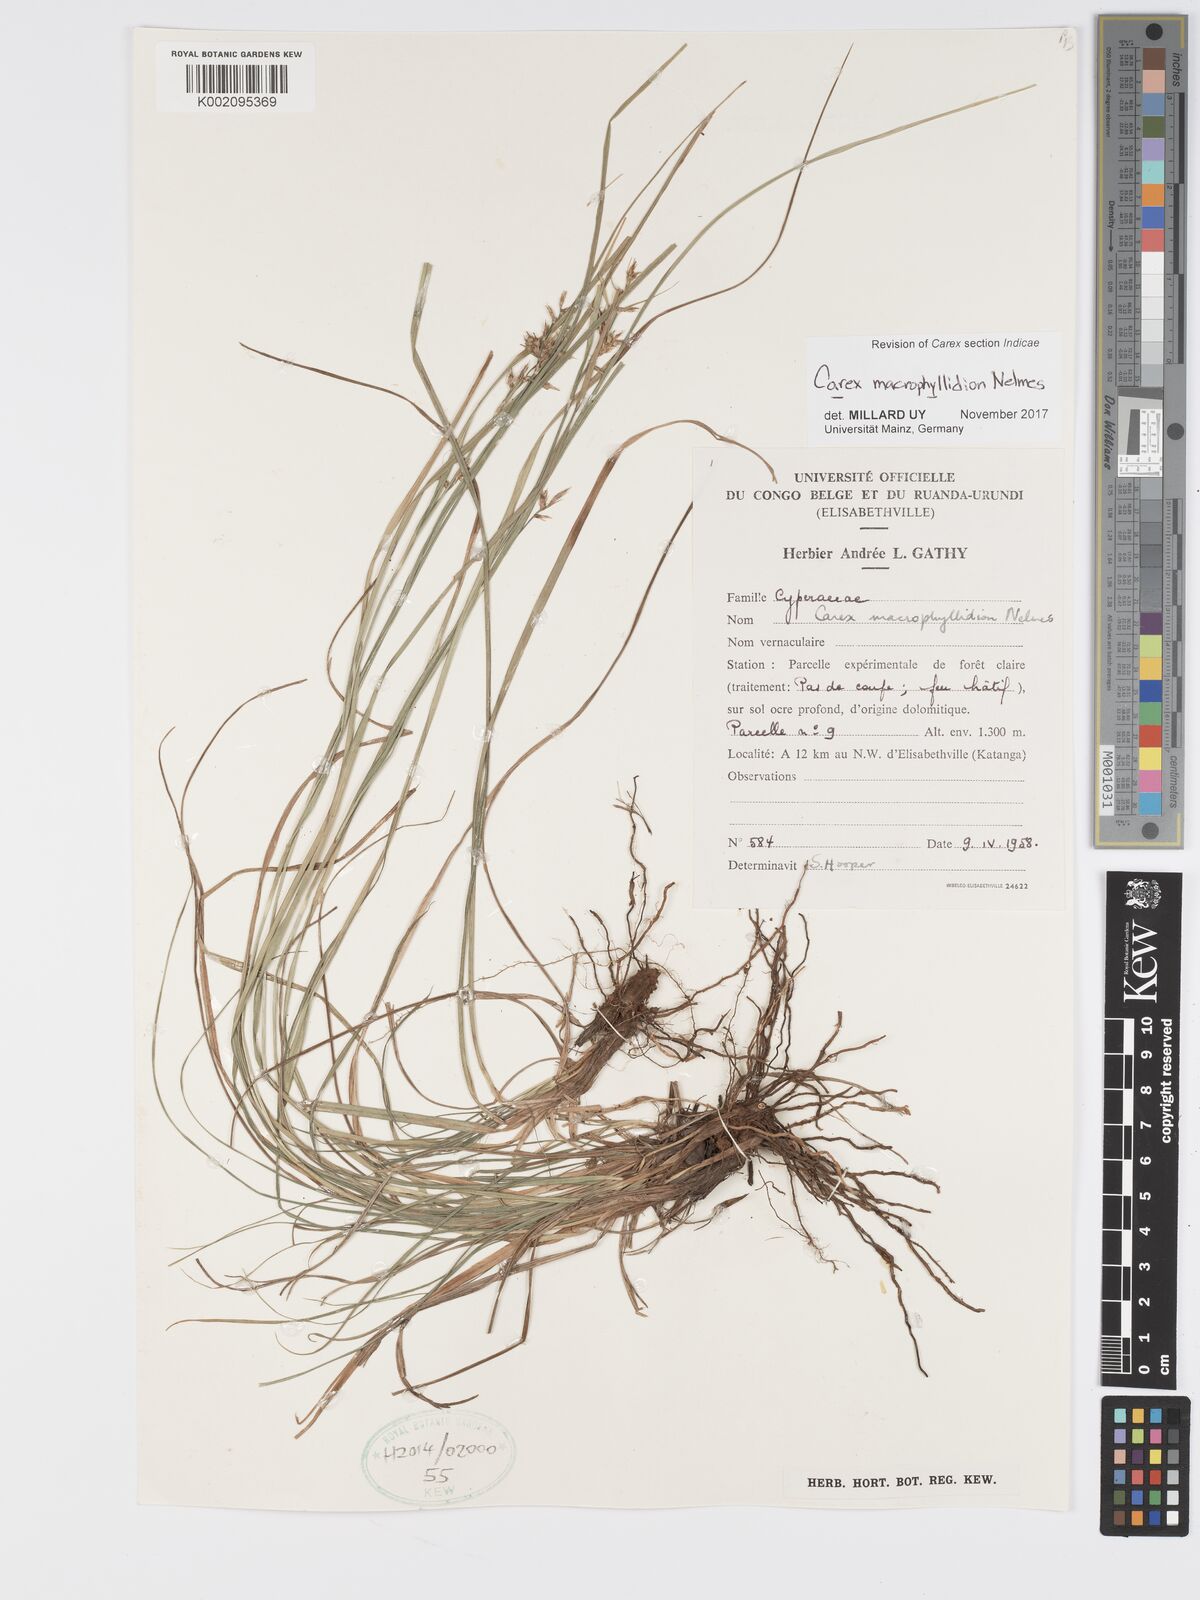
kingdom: Plantae
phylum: Tracheophyta
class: Liliopsida
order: Poales
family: Cyperaceae
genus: Carex
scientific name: Carex macrophyllidion
